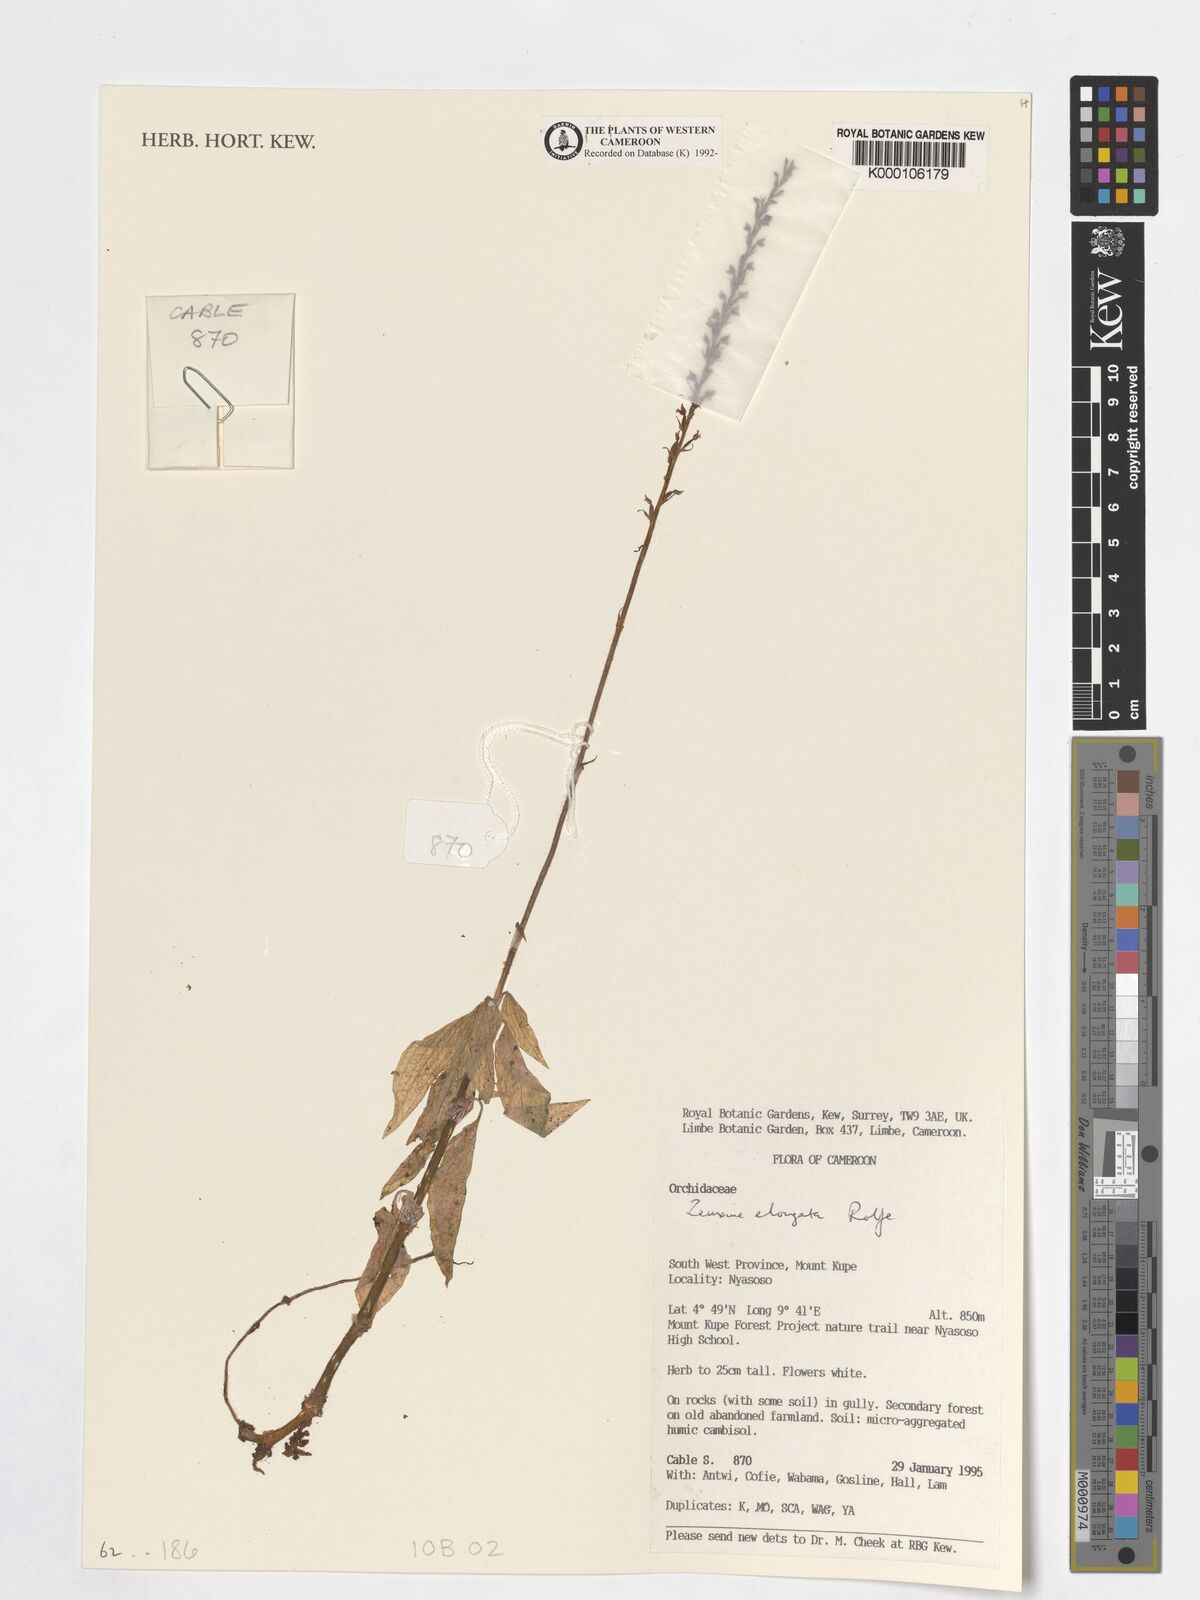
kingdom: Plantae
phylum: Tracheophyta
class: Liliopsida
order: Asparagales
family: Orchidaceae
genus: Zeuxine
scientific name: Zeuxine elongata
